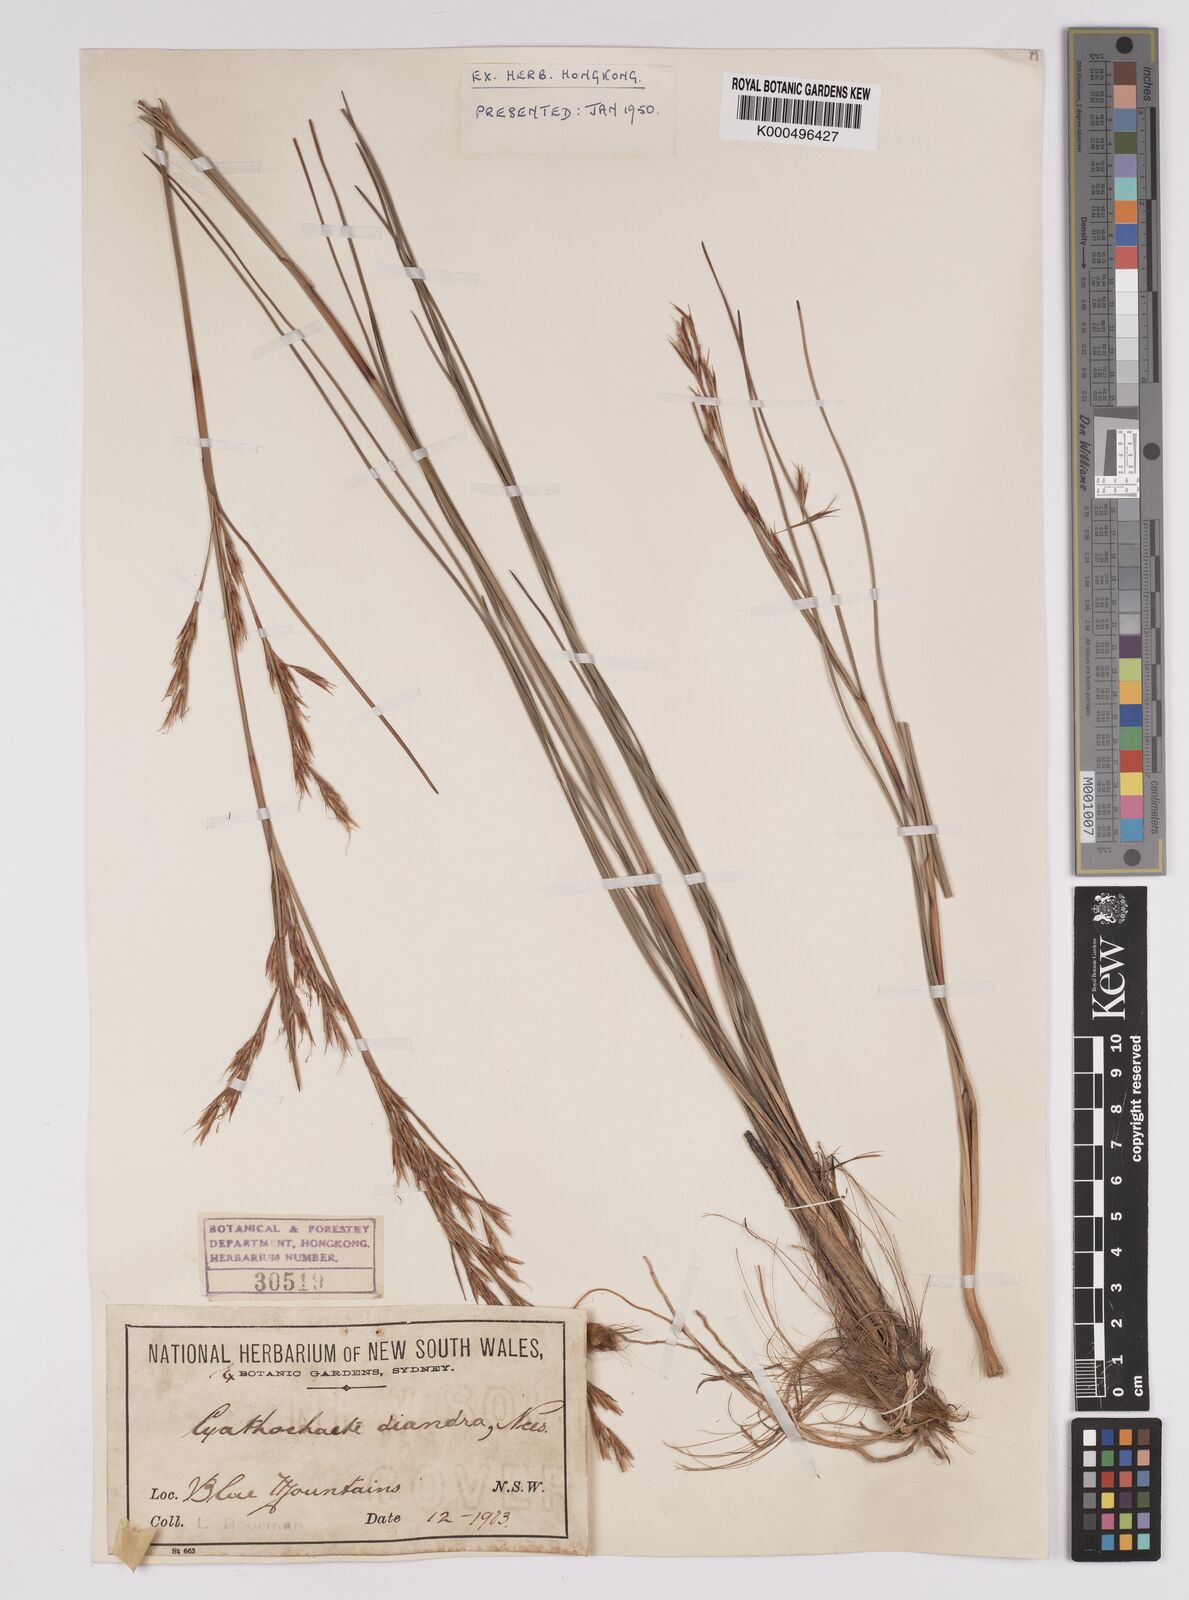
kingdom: Plantae
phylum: Tracheophyta
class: Liliopsida
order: Poales
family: Cyperaceae
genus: Cyathochaeta
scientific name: Cyathochaeta diandra
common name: Sheath rush
